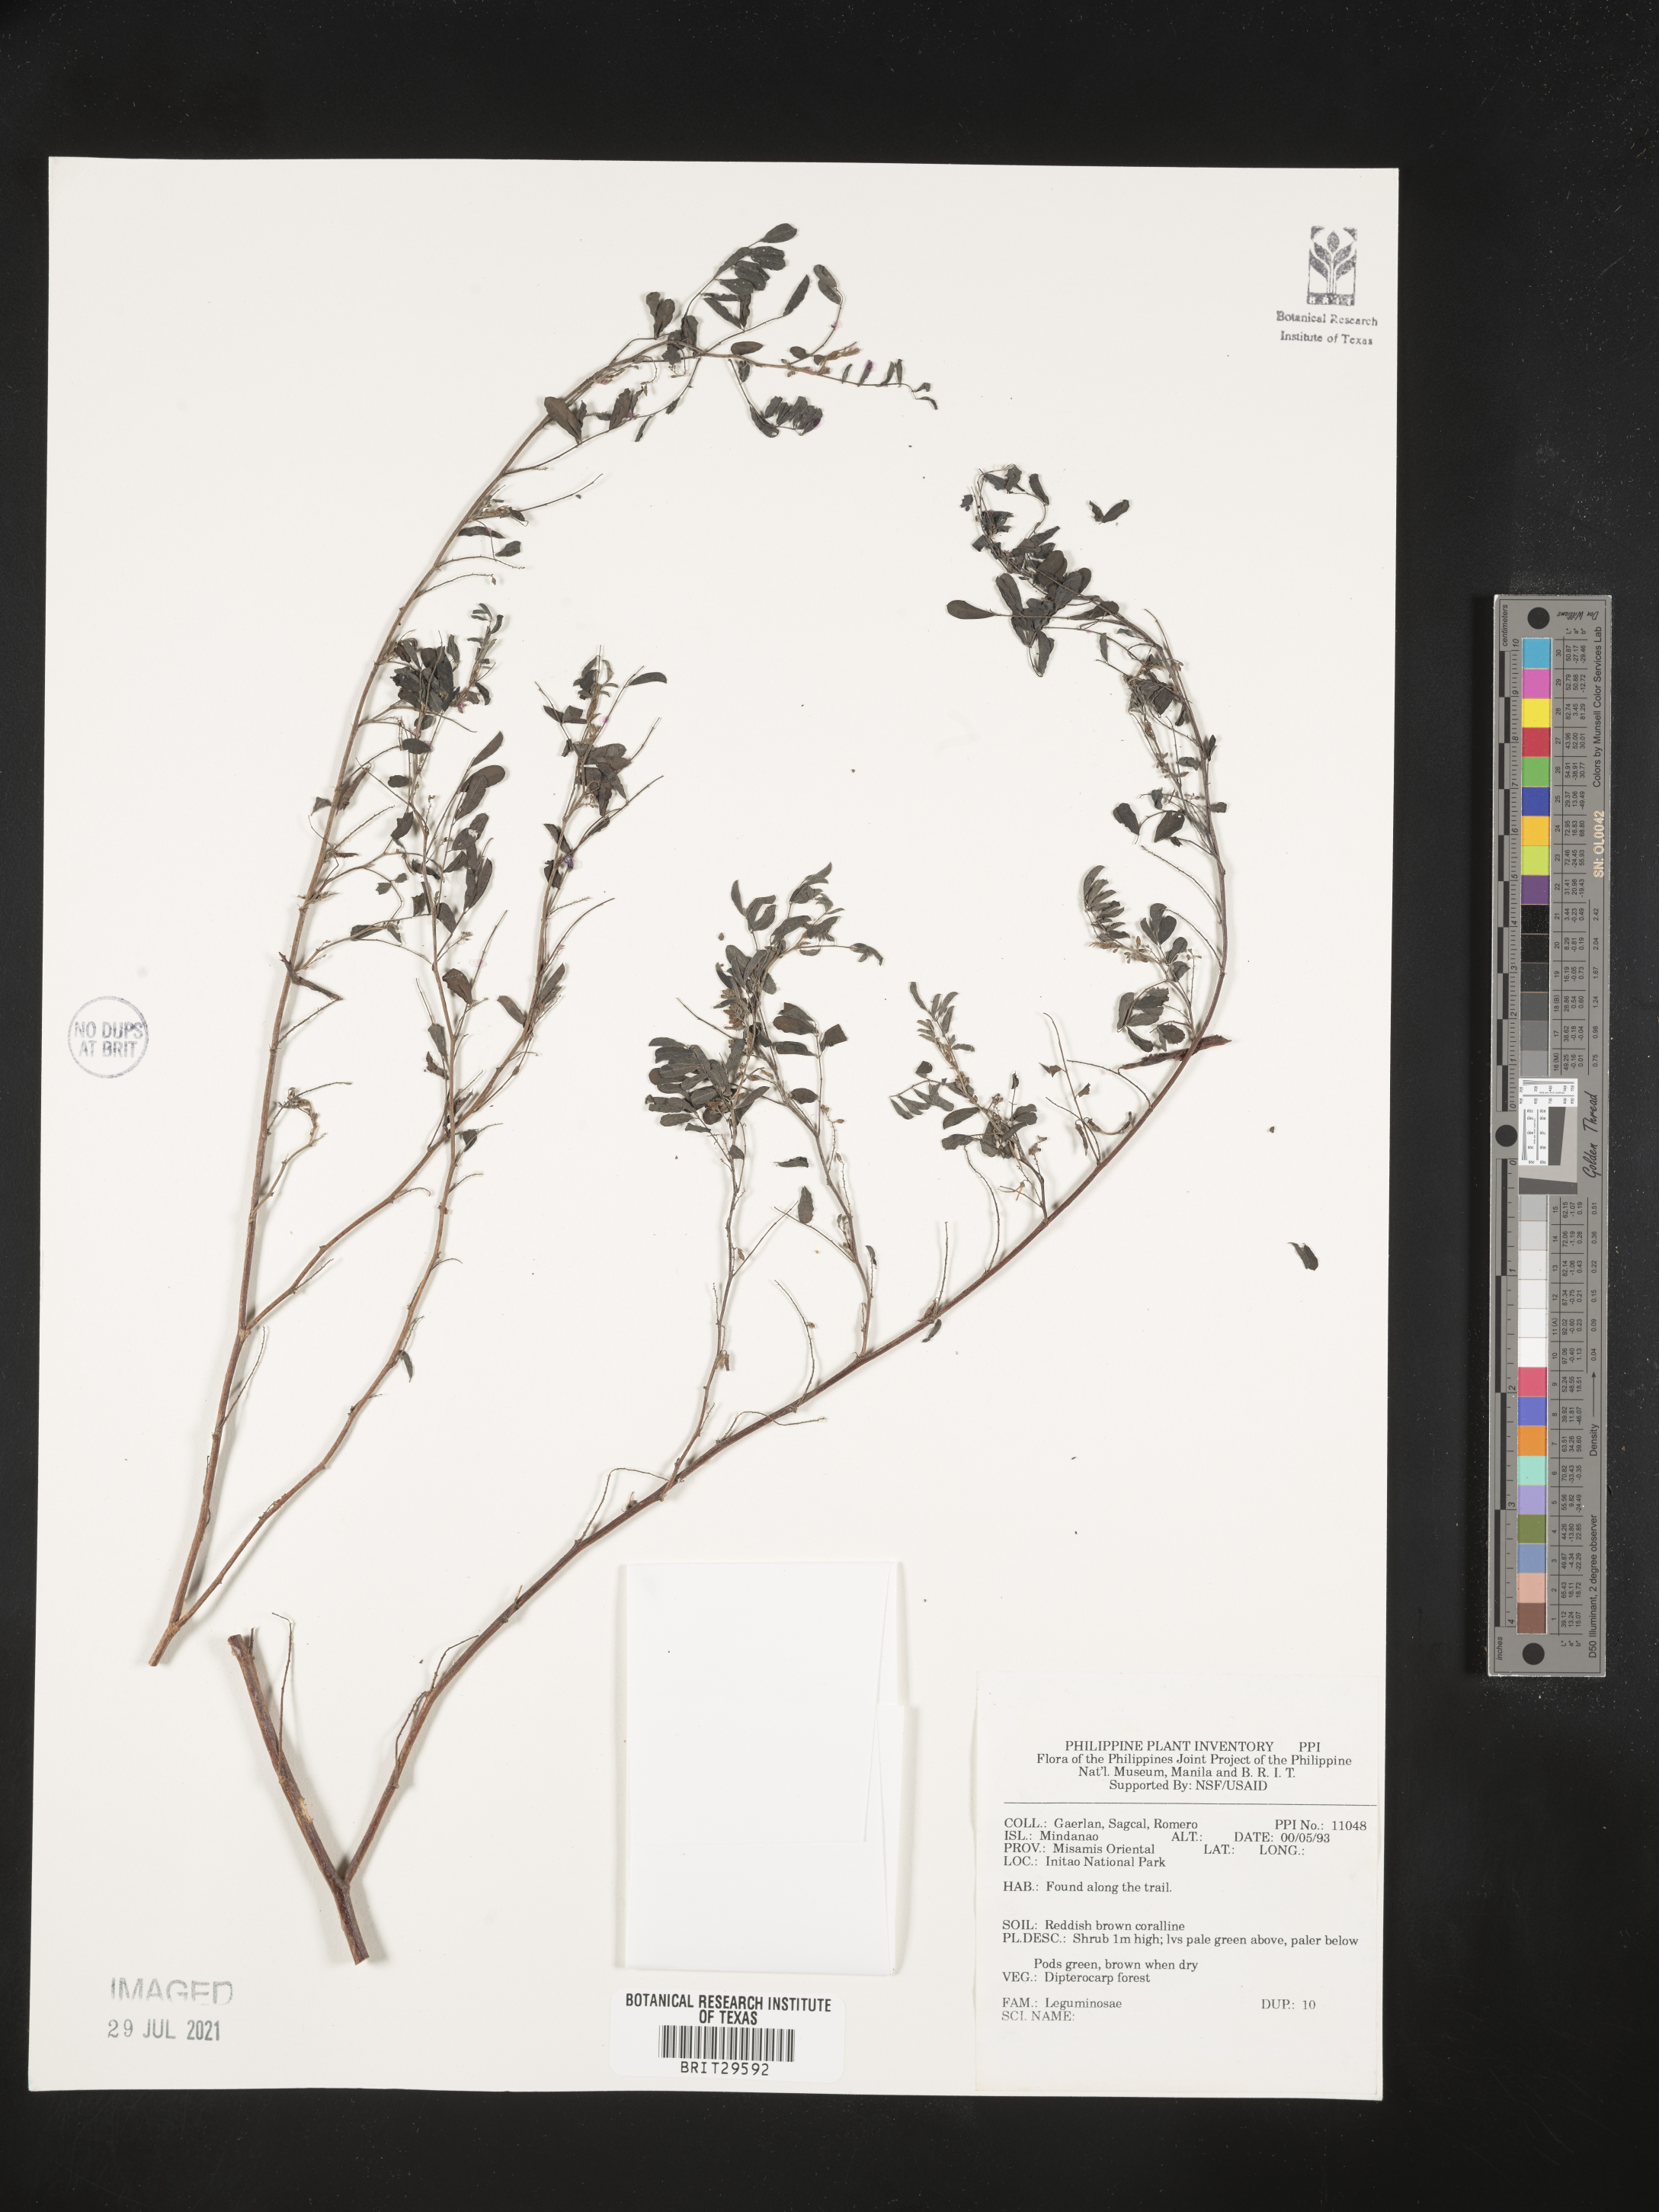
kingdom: Plantae
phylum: Tracheophyta
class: Magnoliopsida
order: Fabales
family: Fabaceae
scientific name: Fabaceae
